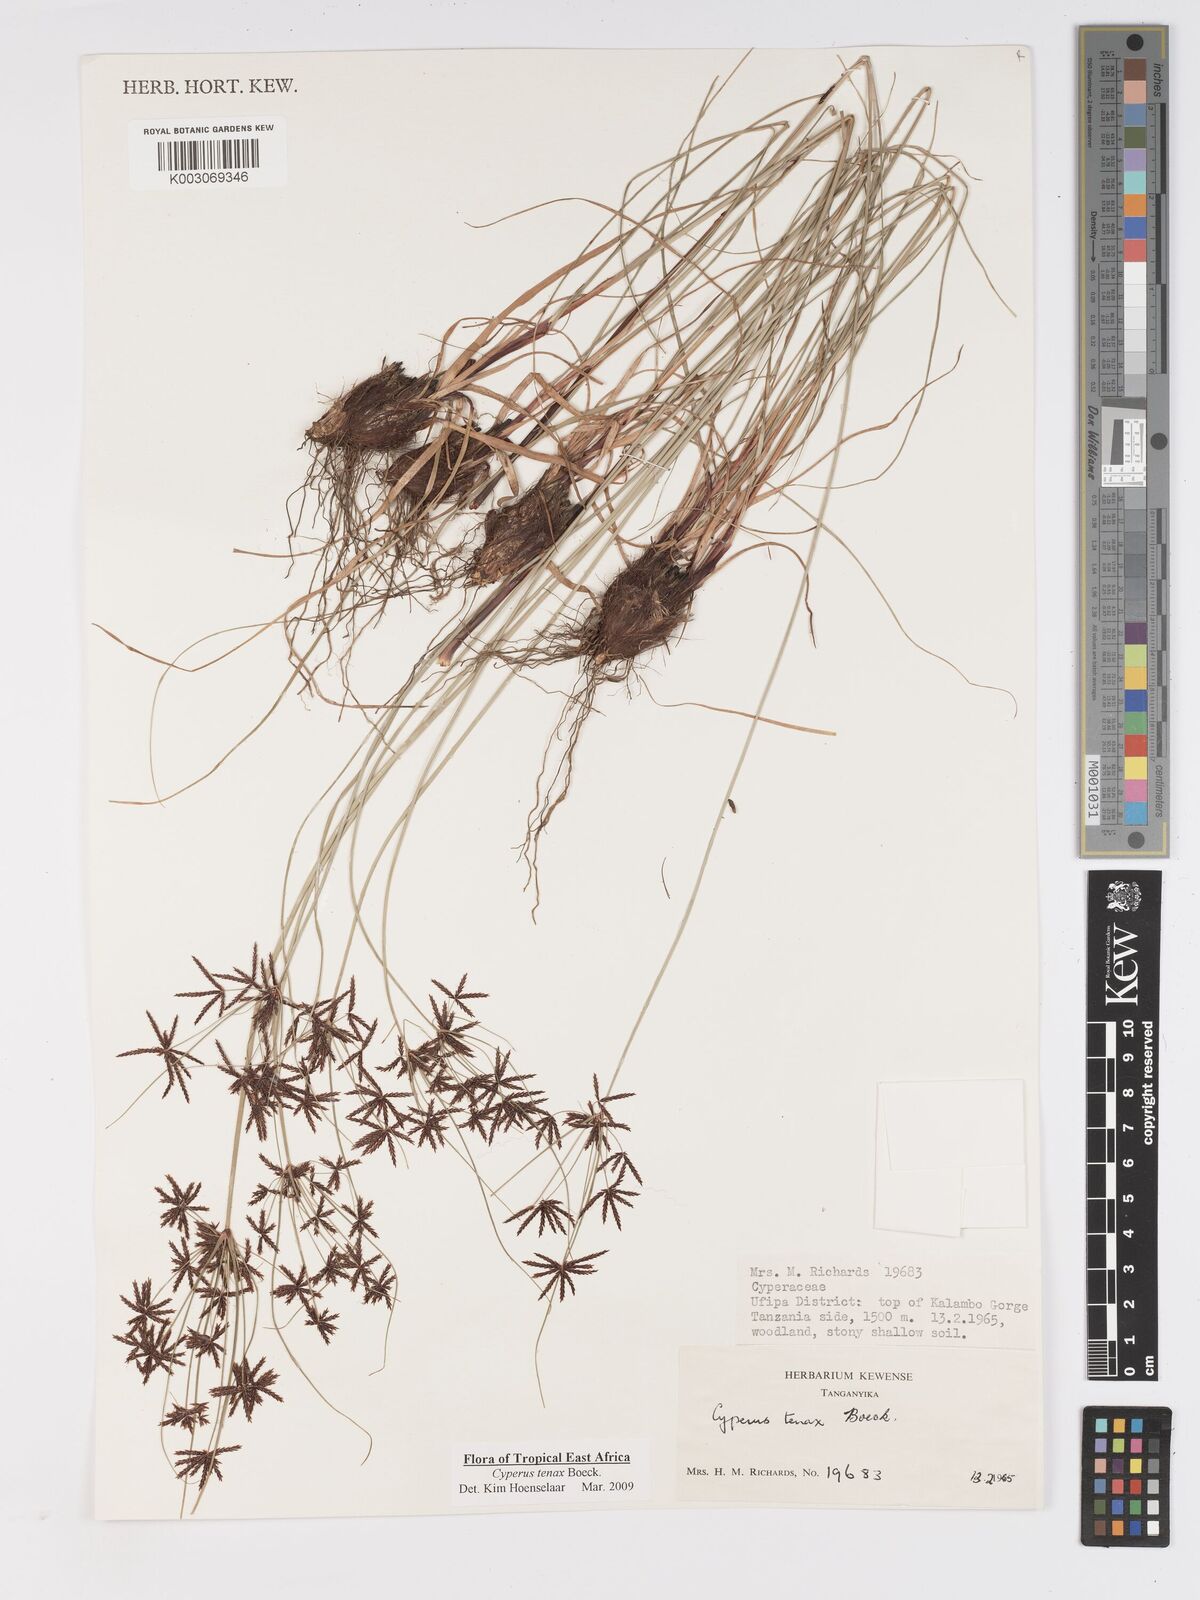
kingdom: Plantae
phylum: Tracheophyta
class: Liliopsida
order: Poales
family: Cyperaceae
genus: Cyperus
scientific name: Cyperus tenax
